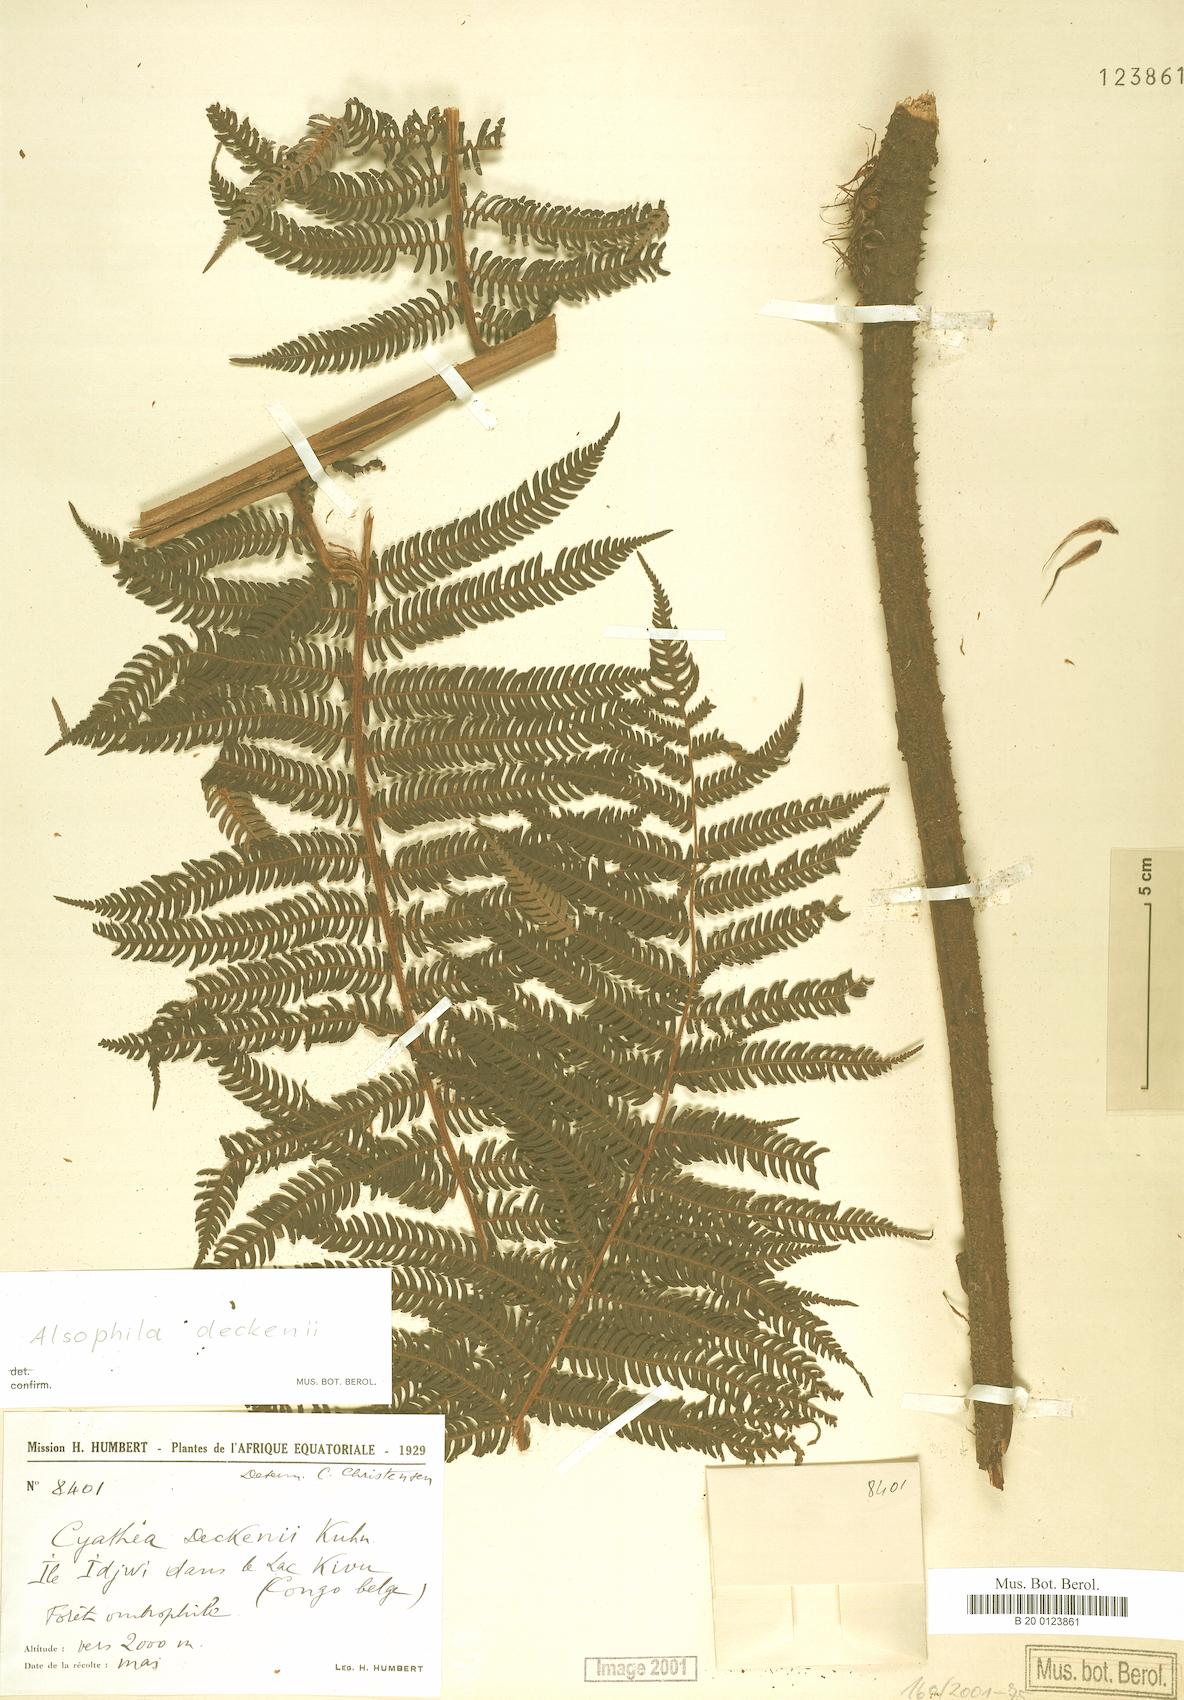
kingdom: Plantae
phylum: Tracheophyta
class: Polypodiopsida
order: Cyatheales
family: Cyatheaceae
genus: Alsophila
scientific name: Alsophila deckenii
